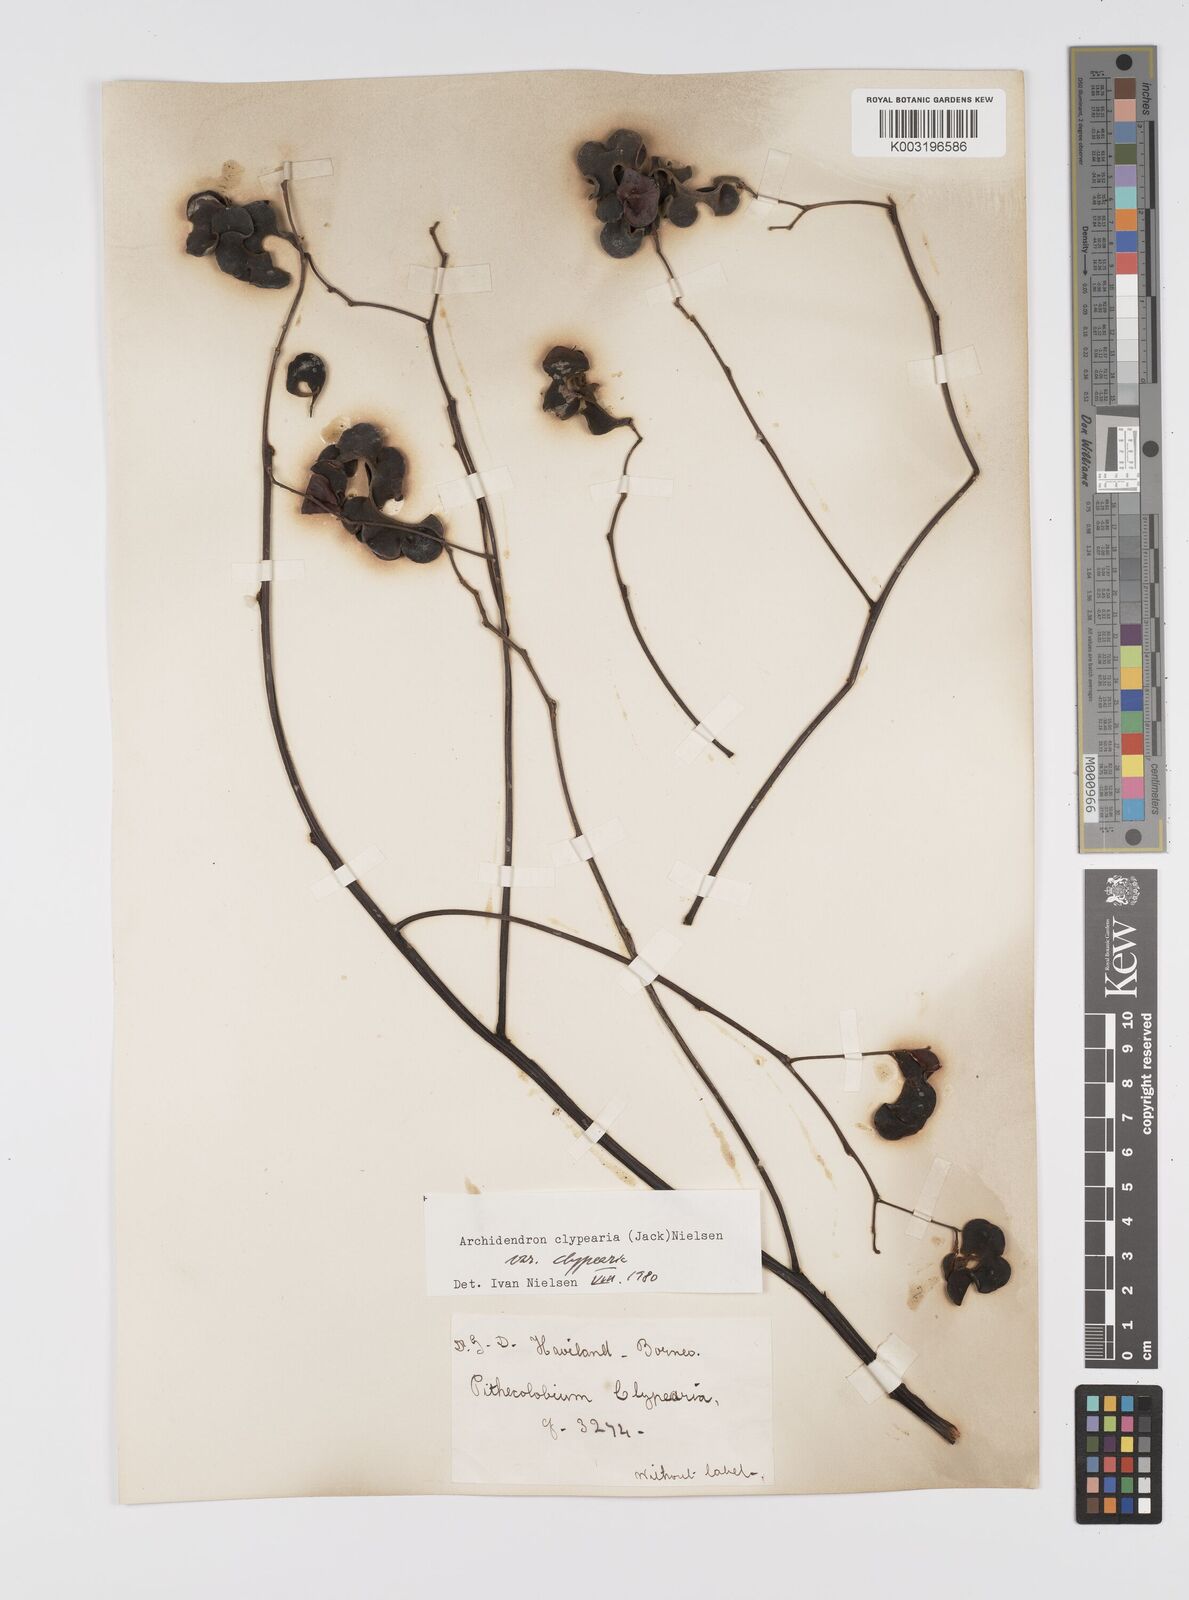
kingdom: Plantae
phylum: Tracheophyta
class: Magnoliopsida
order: Fabales
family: Fabaceae
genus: Archidendron
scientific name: Archidendron clypearia
